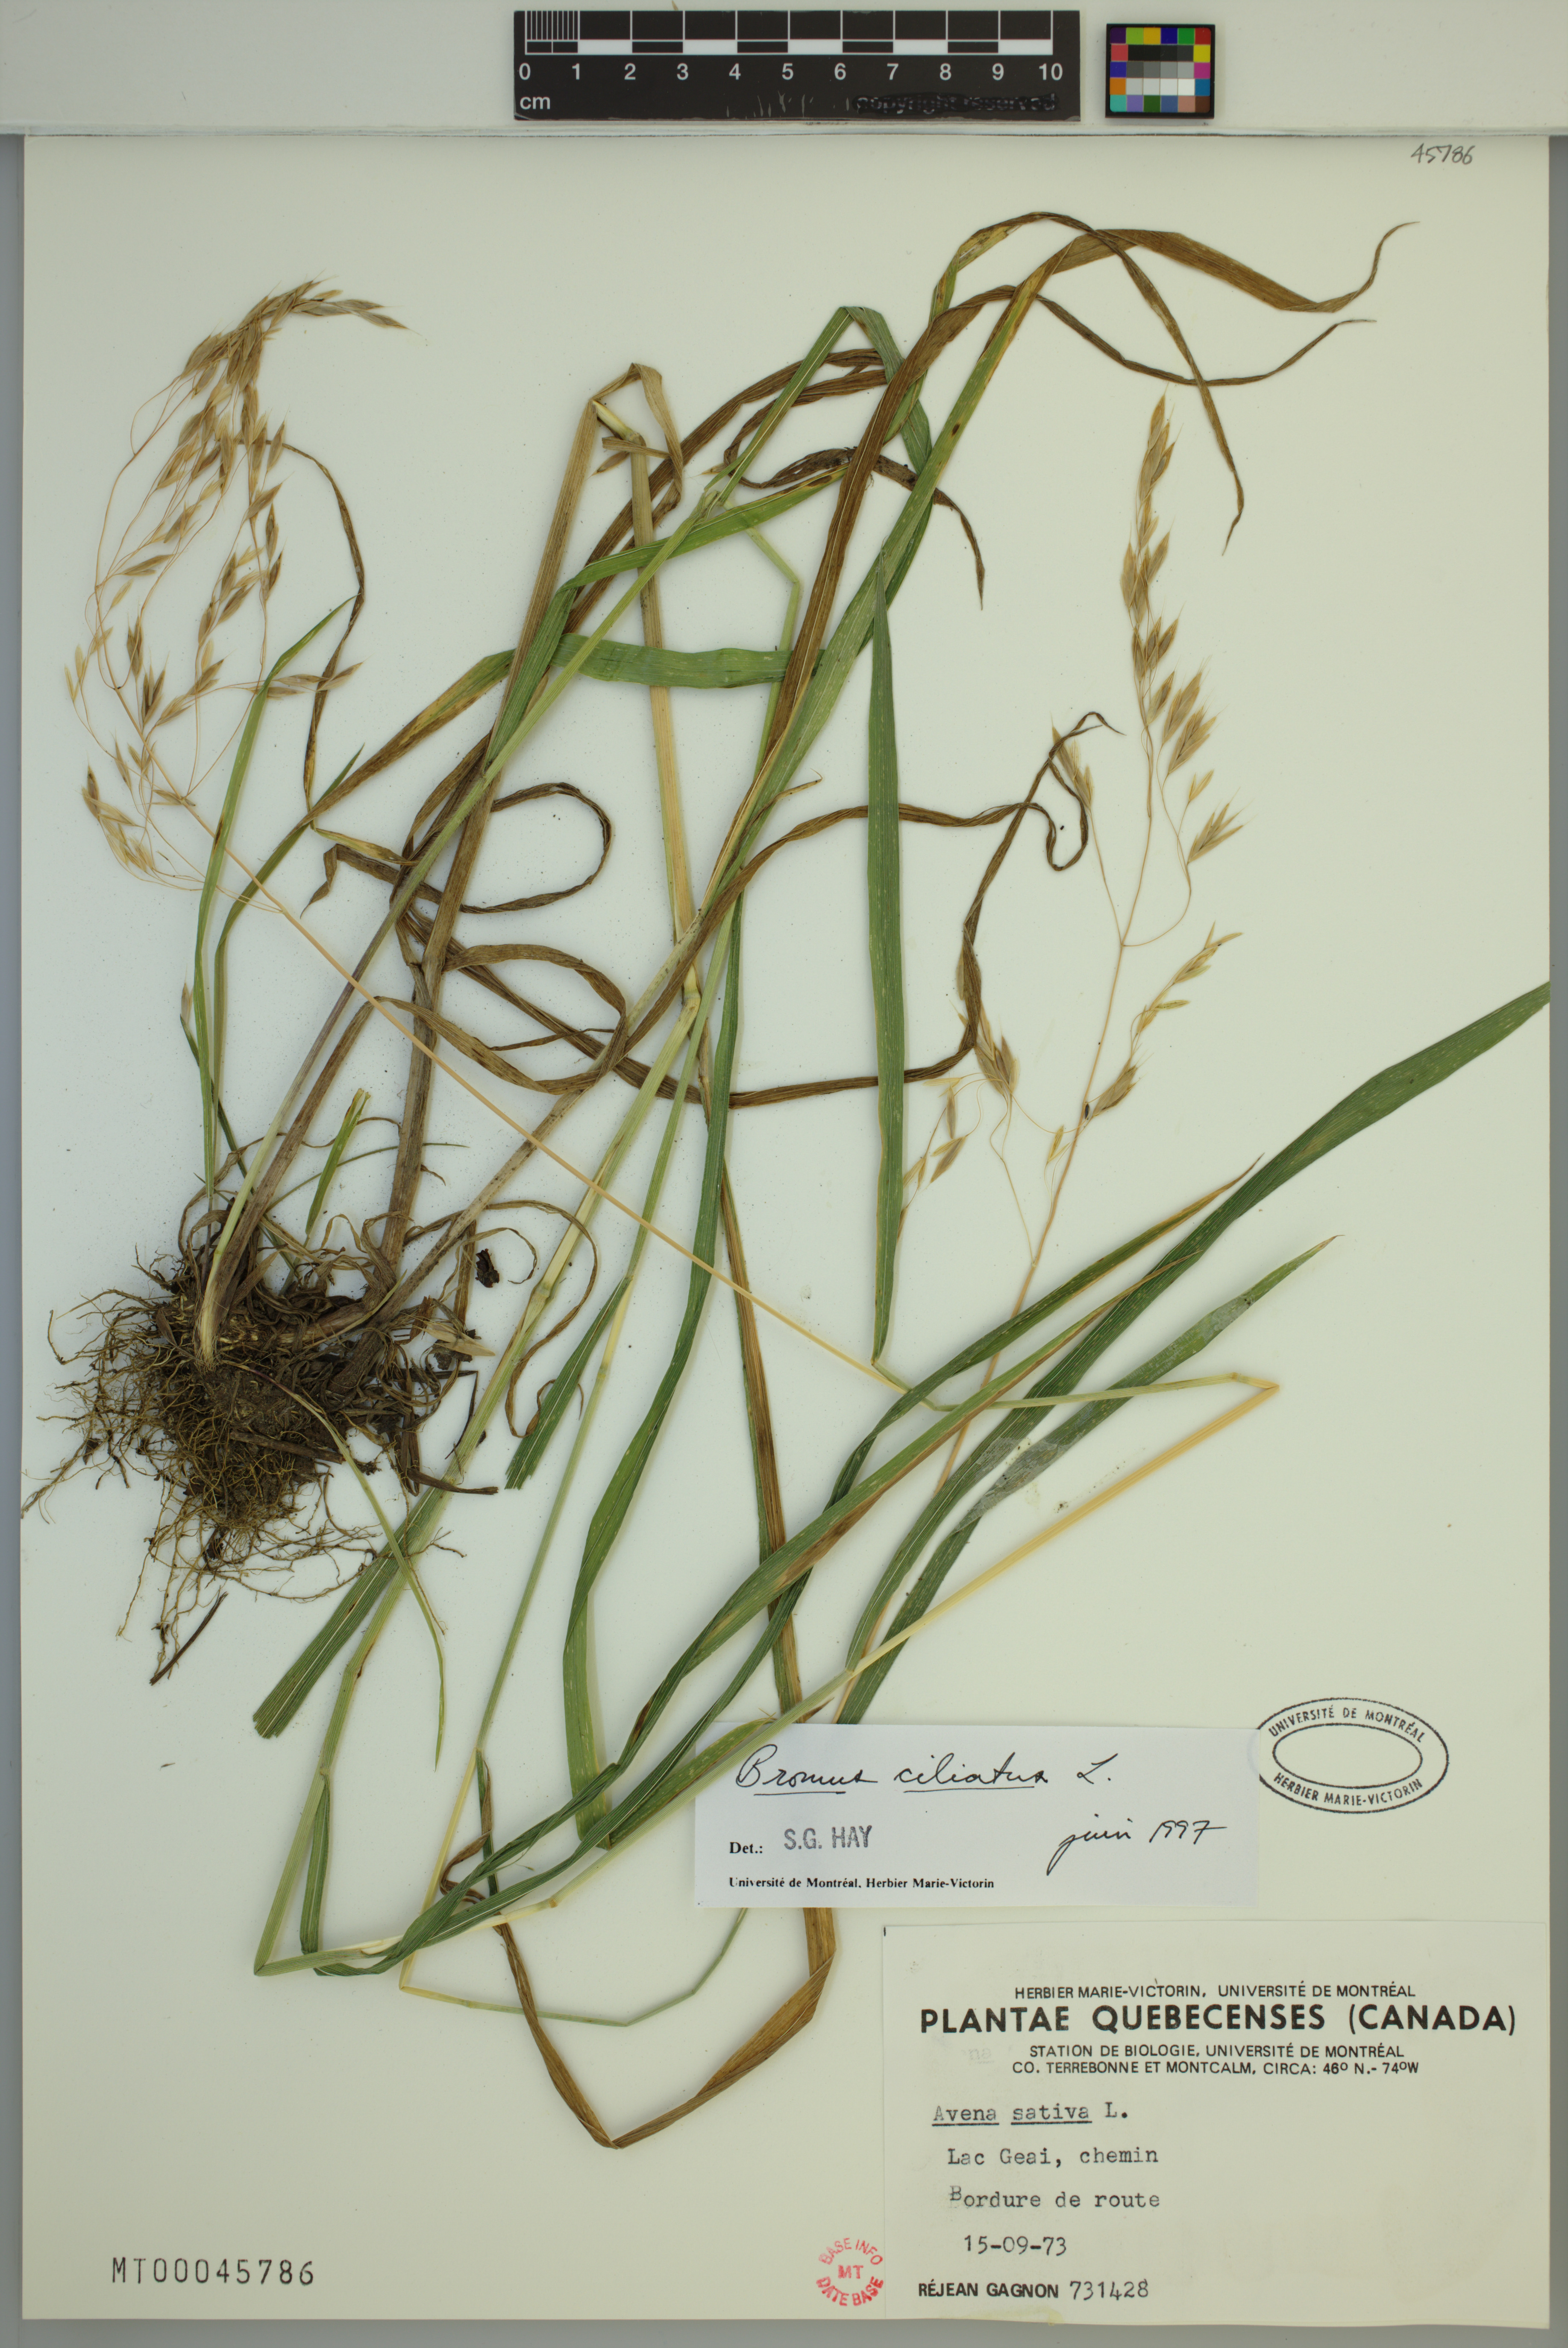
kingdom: Plantae
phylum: Tracheophyta
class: Liliopsida
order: Poales
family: Poaceae
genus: Bromus
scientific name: Bromus ciliatus
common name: Fringe brome
